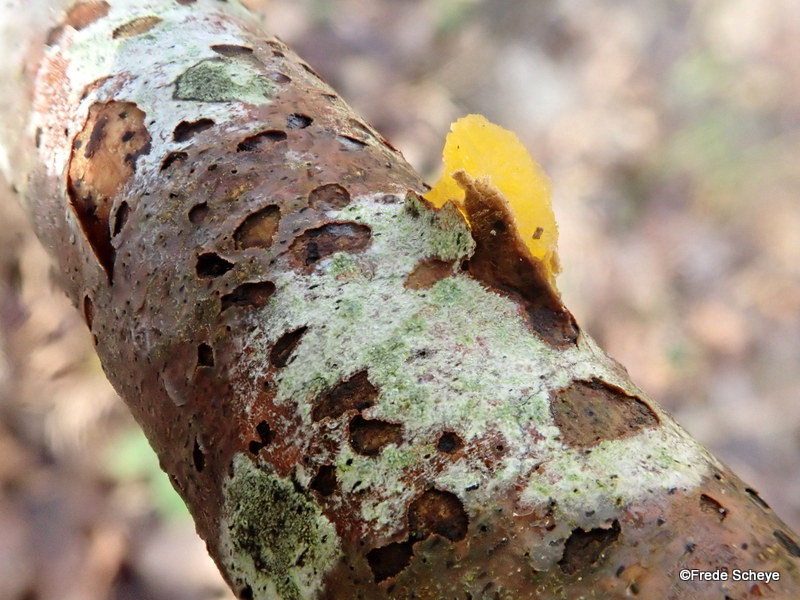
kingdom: Fungi
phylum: Basidiomycota
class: Tremellomycetes
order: Tremellales
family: Tremellaceae
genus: Tremella
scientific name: Tremella mesenterica
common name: gul bævresvamp
